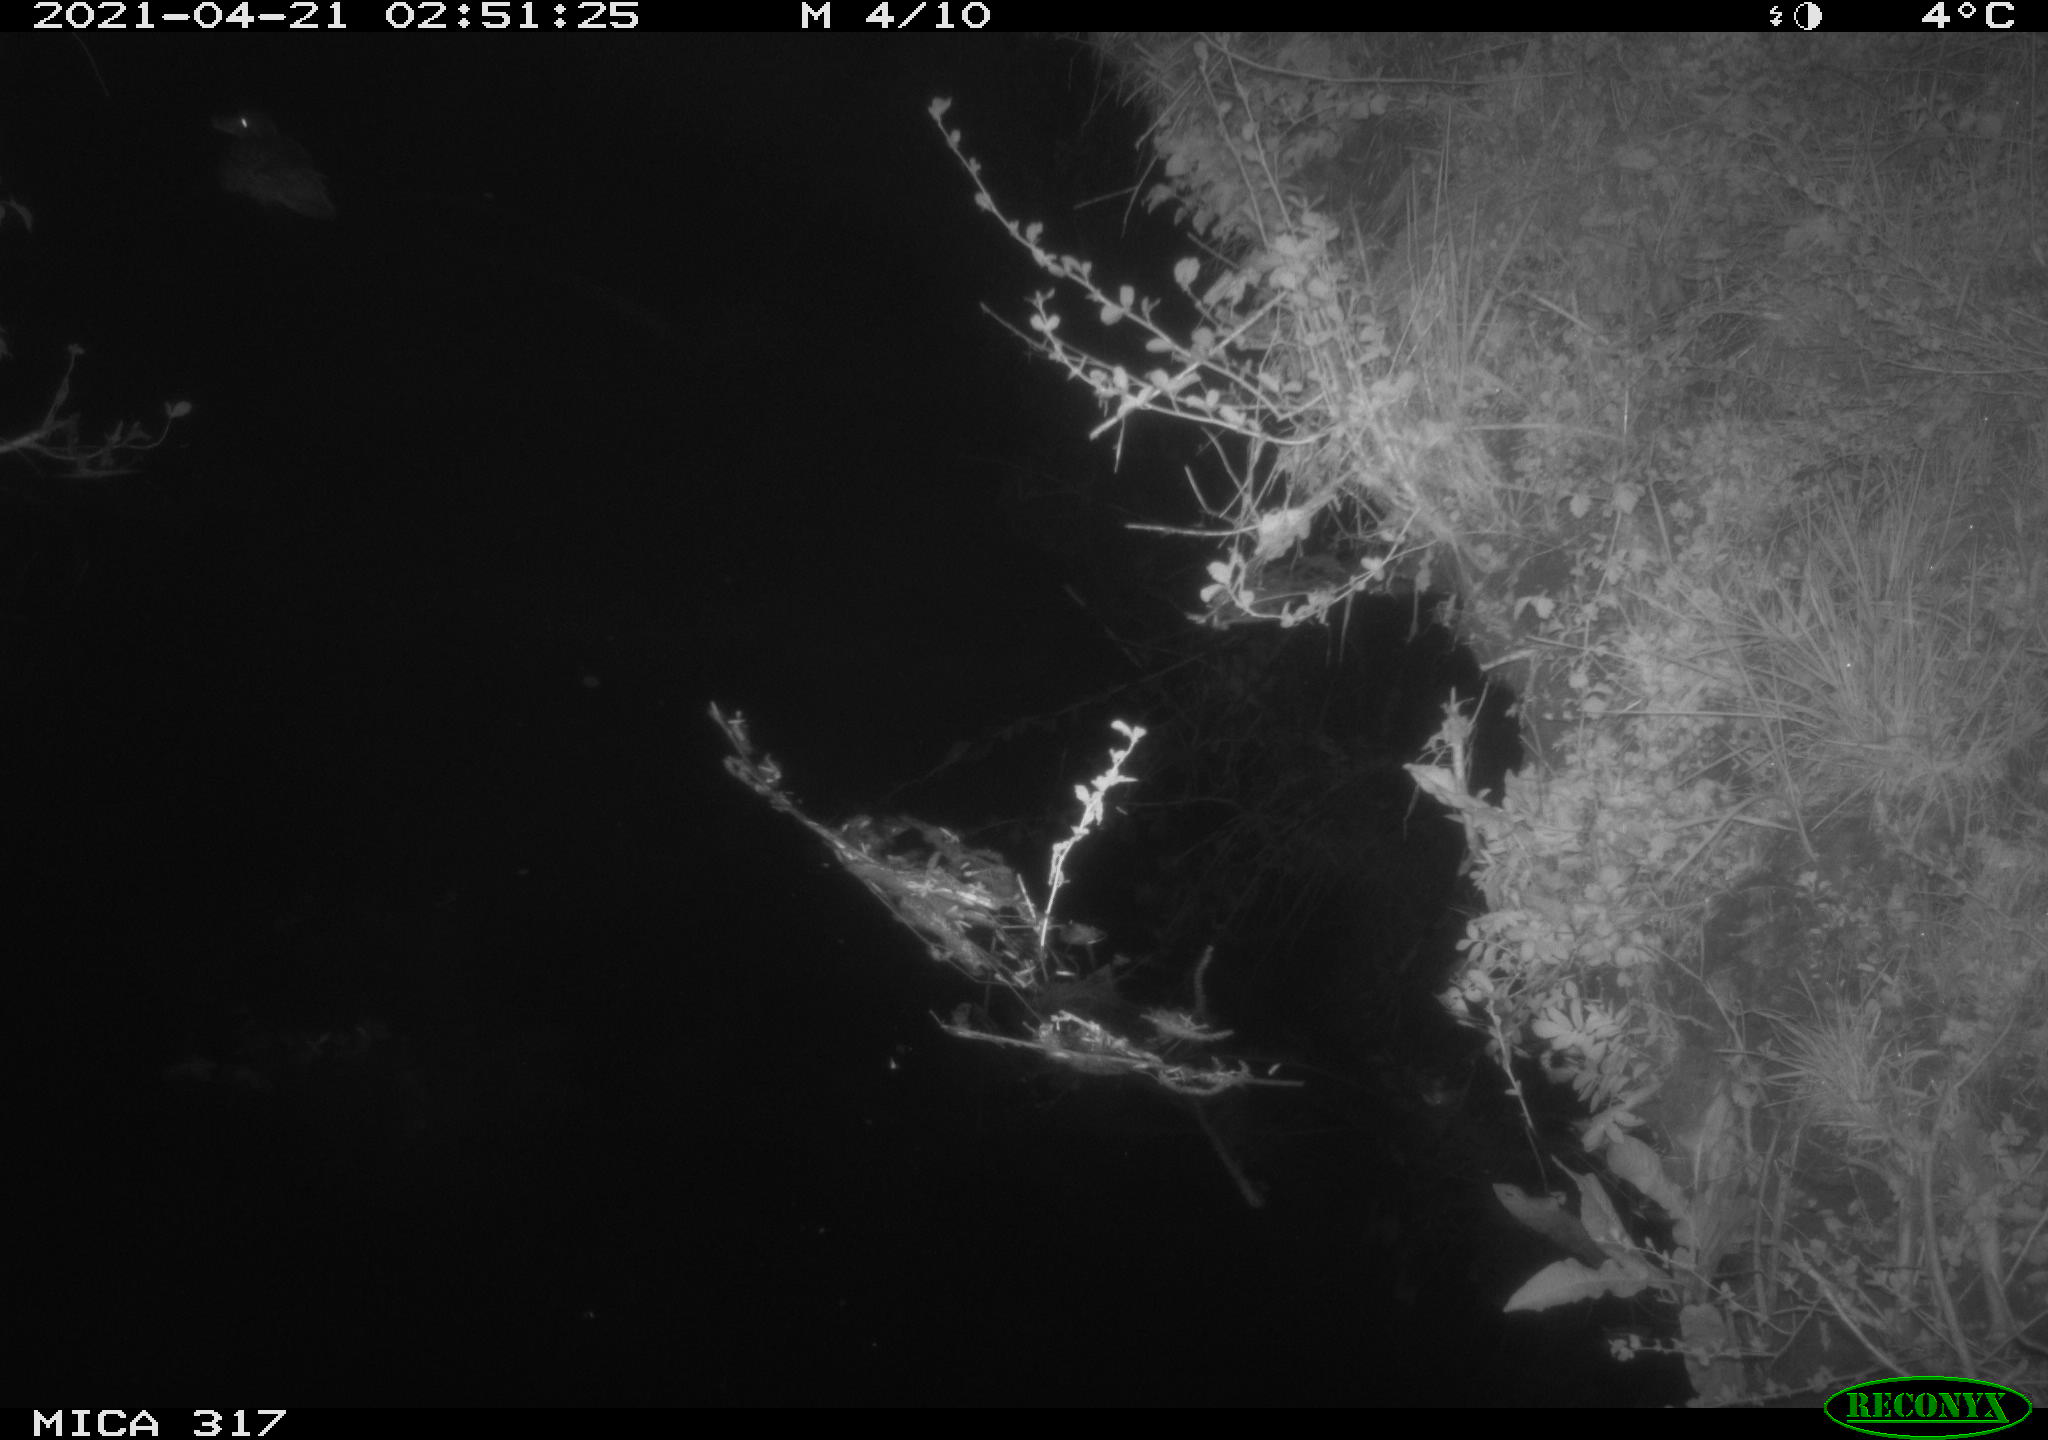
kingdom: Animalia
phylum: Chordata
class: Aves
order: Anseriformes
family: Anatidae
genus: Anas
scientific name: Anas platyrhynchos
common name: Mallard
